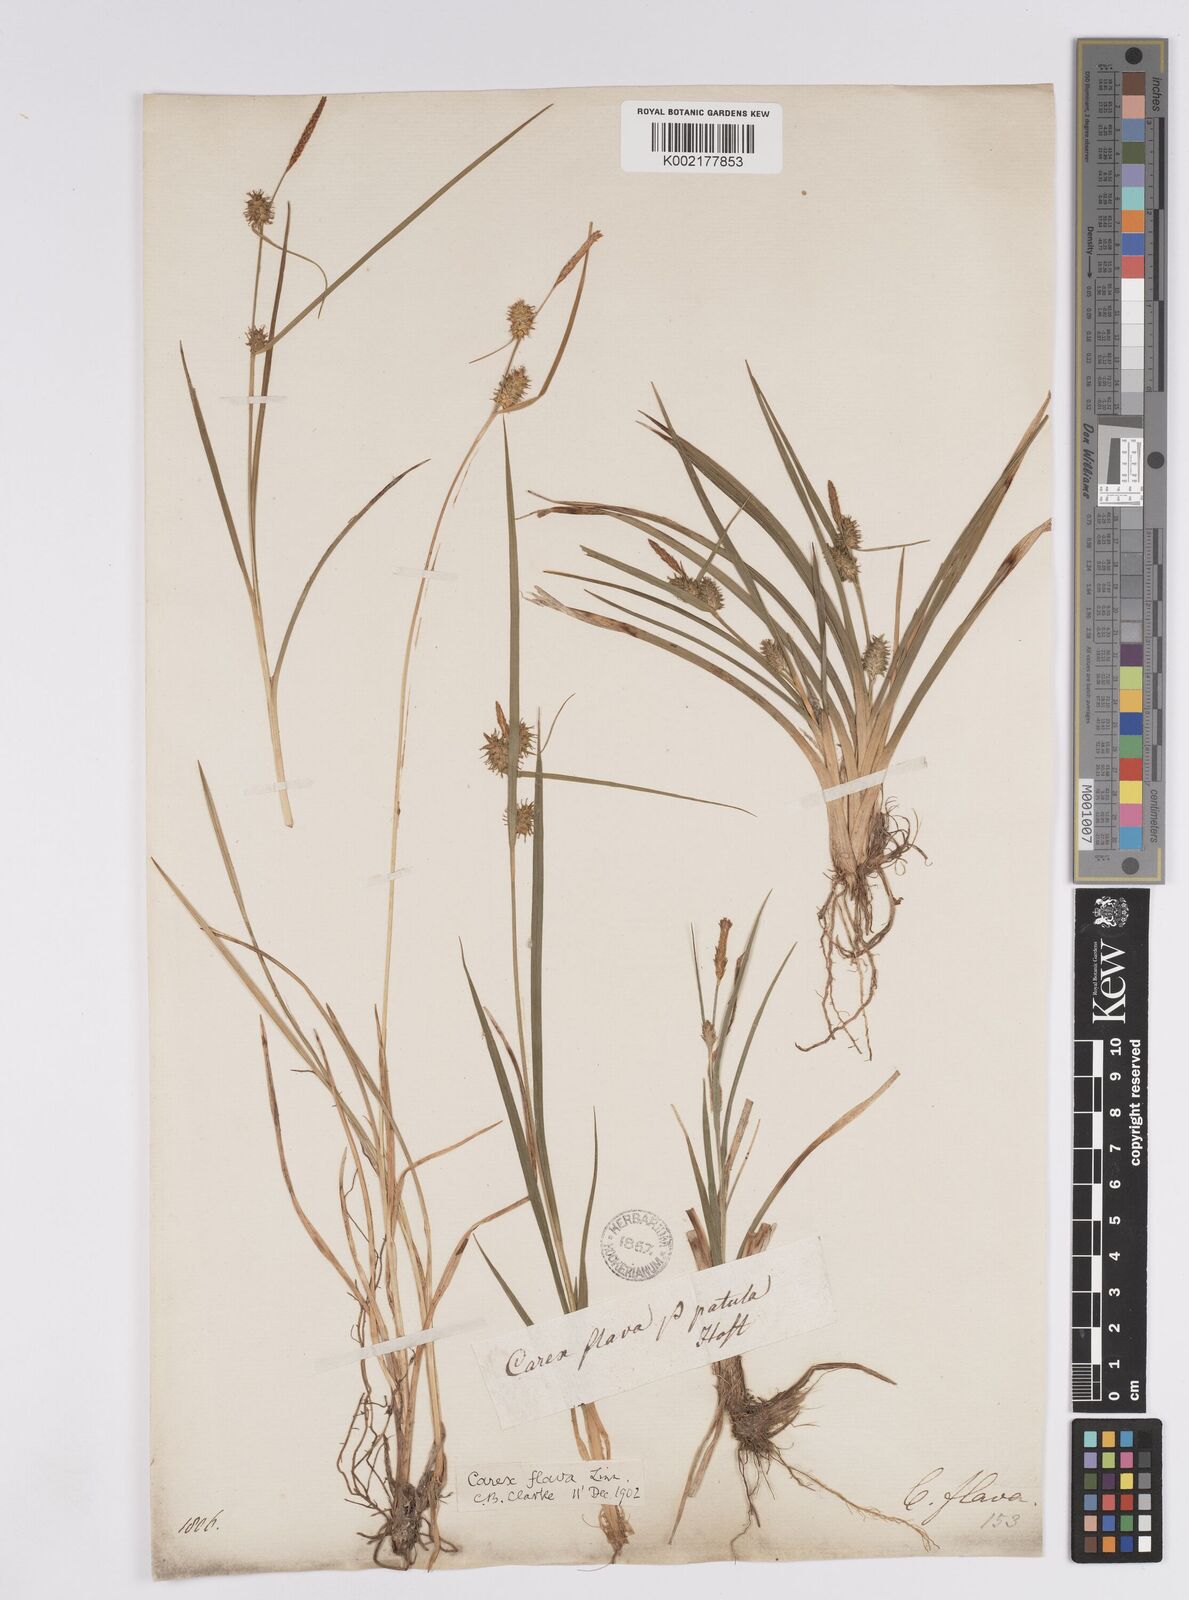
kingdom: Plantae
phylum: Tracheophyta
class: Liliopsida
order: Poales
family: Cyperaceae
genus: Carex
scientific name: Carex flava
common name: Large yellow-sedge
